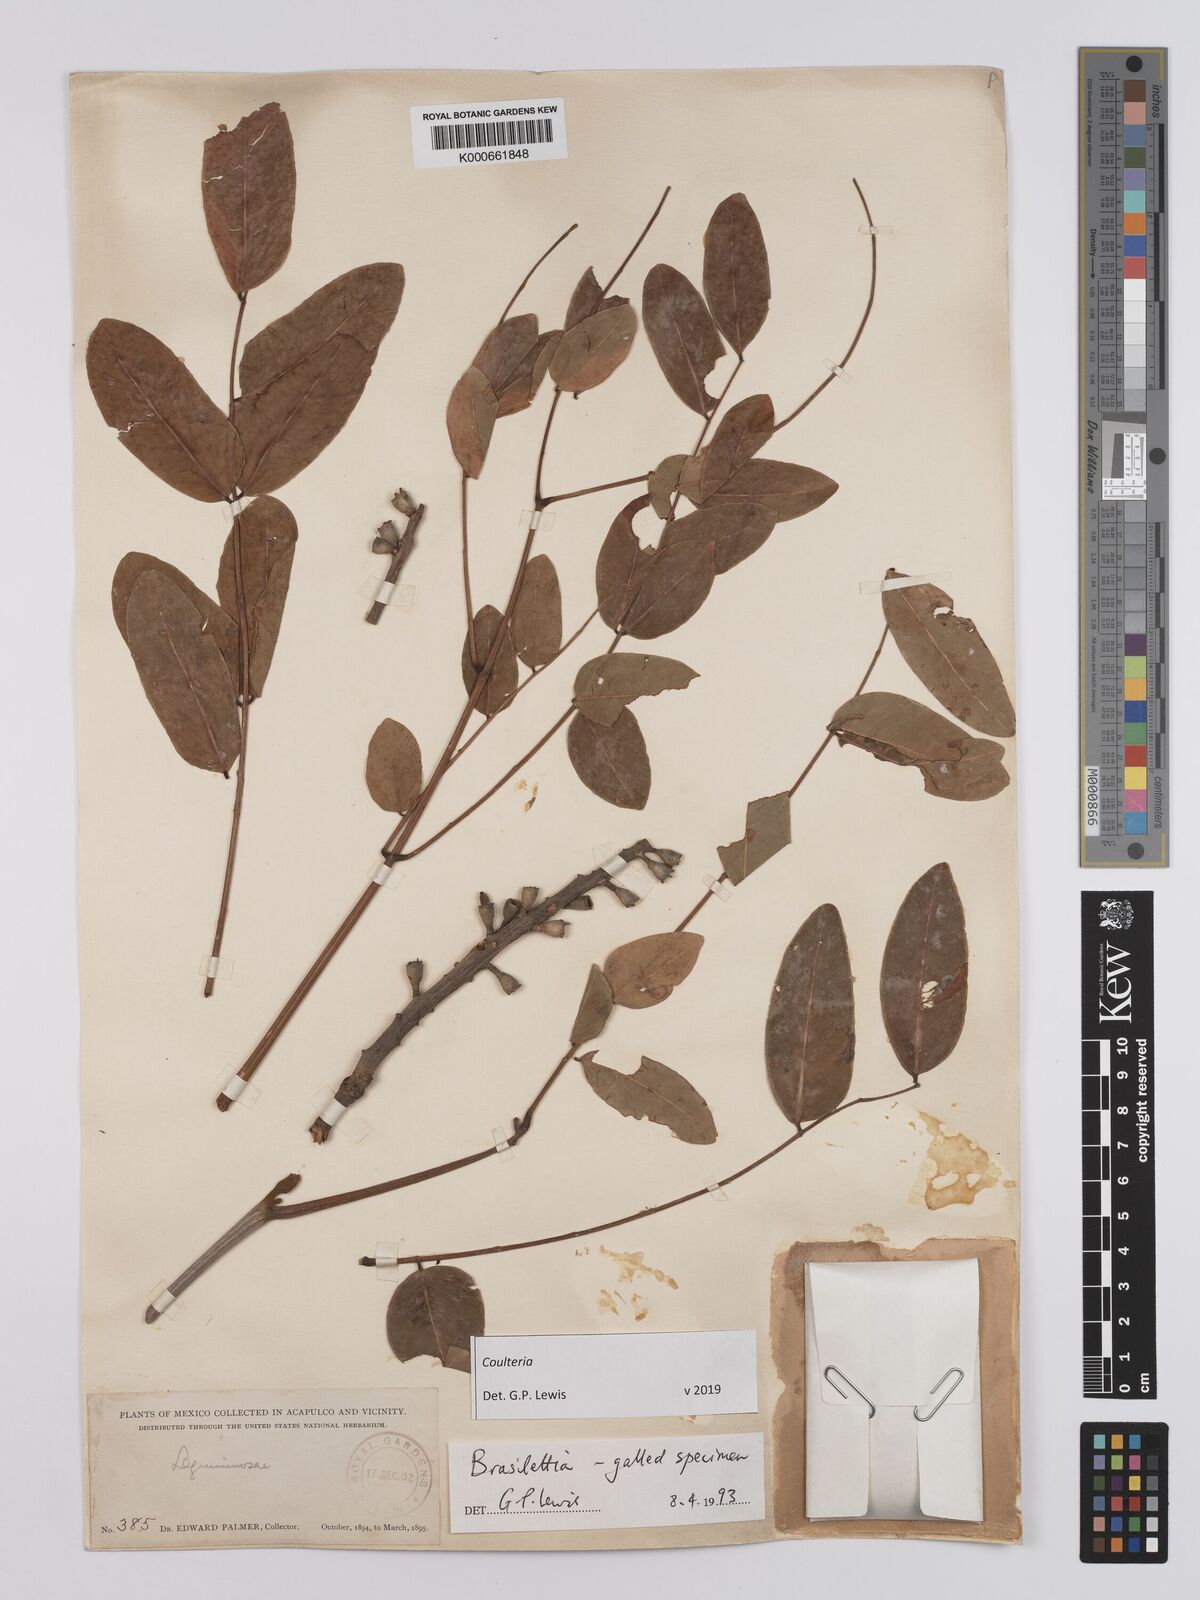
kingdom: Plantae
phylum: Tracheophyta
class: Magnoliopsida
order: Fabales
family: Fabaceae
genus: Coulteria
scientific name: Coulteria
